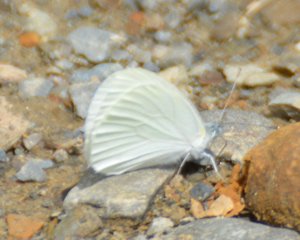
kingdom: Animalia
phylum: Arthropoda
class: Insecta
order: Lepidoptera
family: Pieridae
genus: Pieris
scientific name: Pieris oleracea
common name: Mustard White
